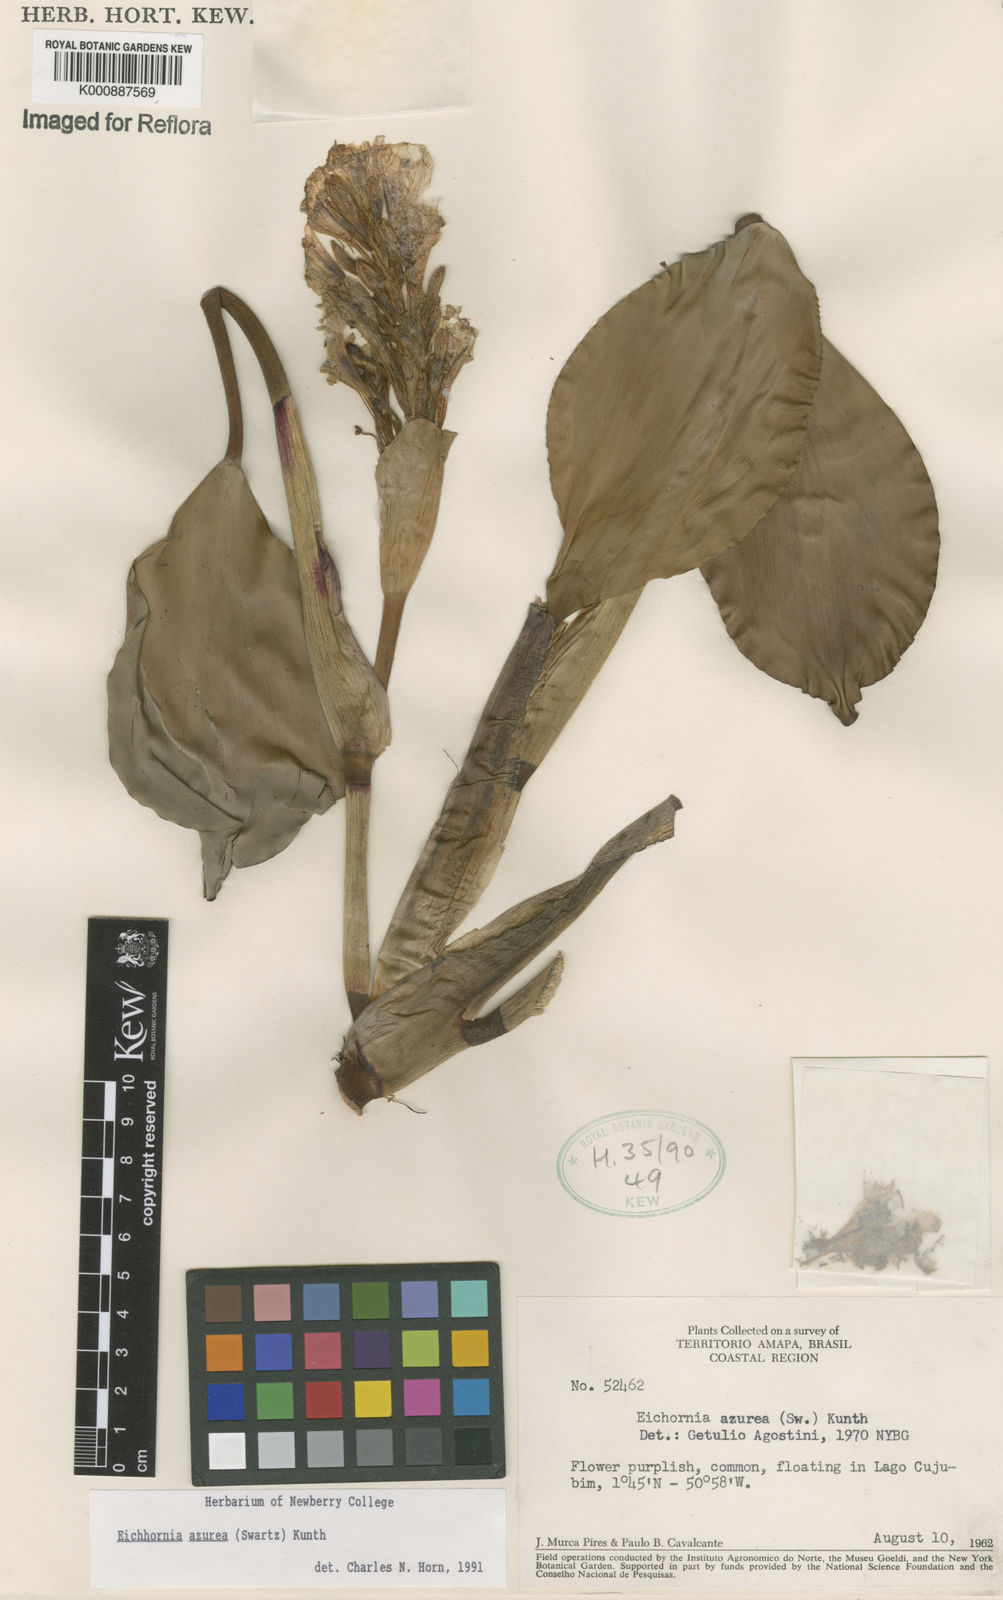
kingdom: Plantae
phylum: Tracheophyta
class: Liliopsida
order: Commelinales
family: Pontederiaceae
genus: Pontederia
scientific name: Pontederia azurea
